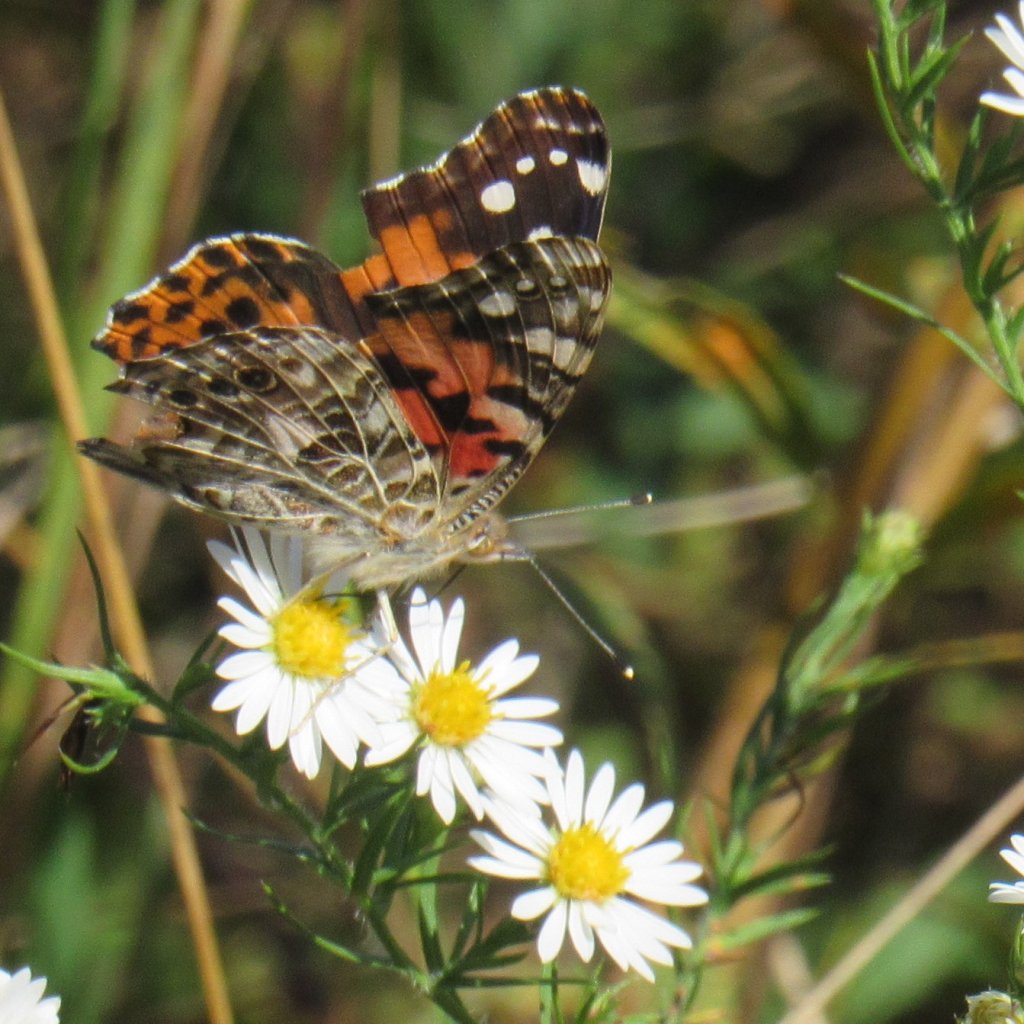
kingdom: Animalia
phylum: Arthropoda
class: Insecta
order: Lepidoptera
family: Nymphalidae
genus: Vanessa
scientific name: Vanessa cardui
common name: Painted Lady
